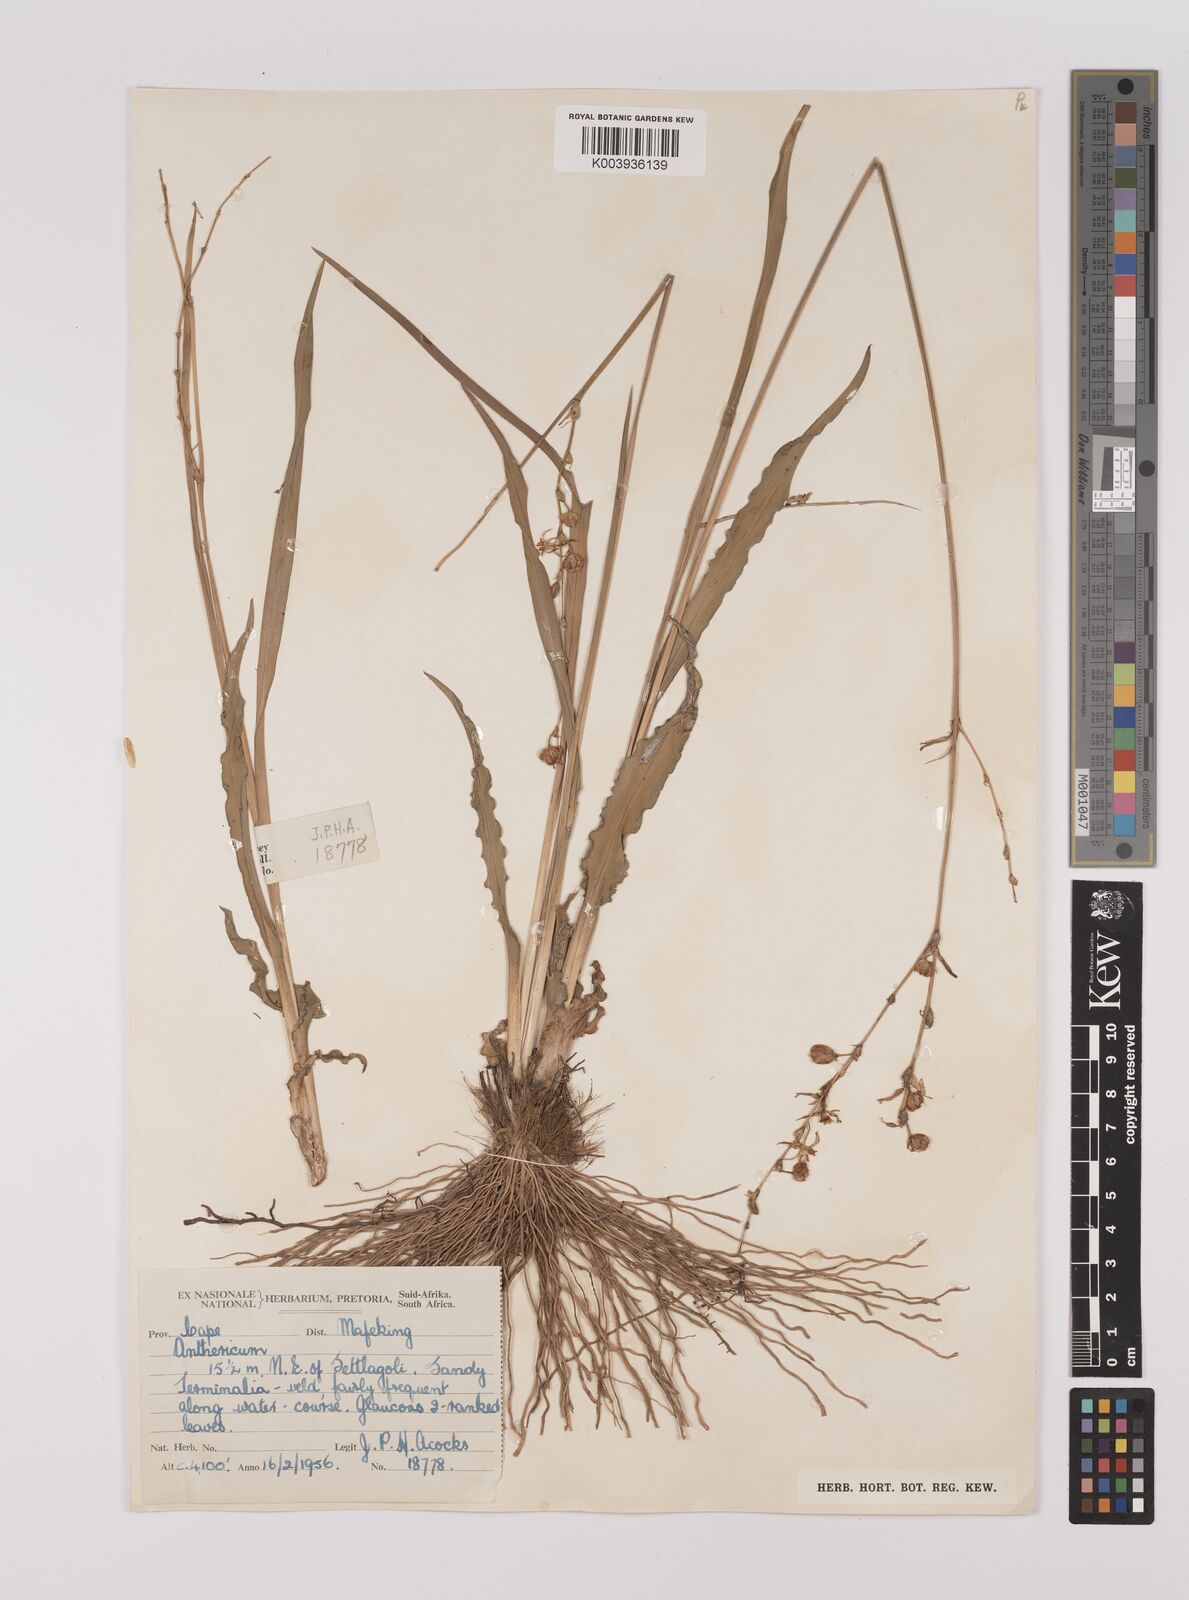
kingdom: Plantae
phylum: Tracheophyta
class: Liliopsida
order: Asparagales
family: Asparagaceae
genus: Chlorophytum
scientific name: Chlorophytum
